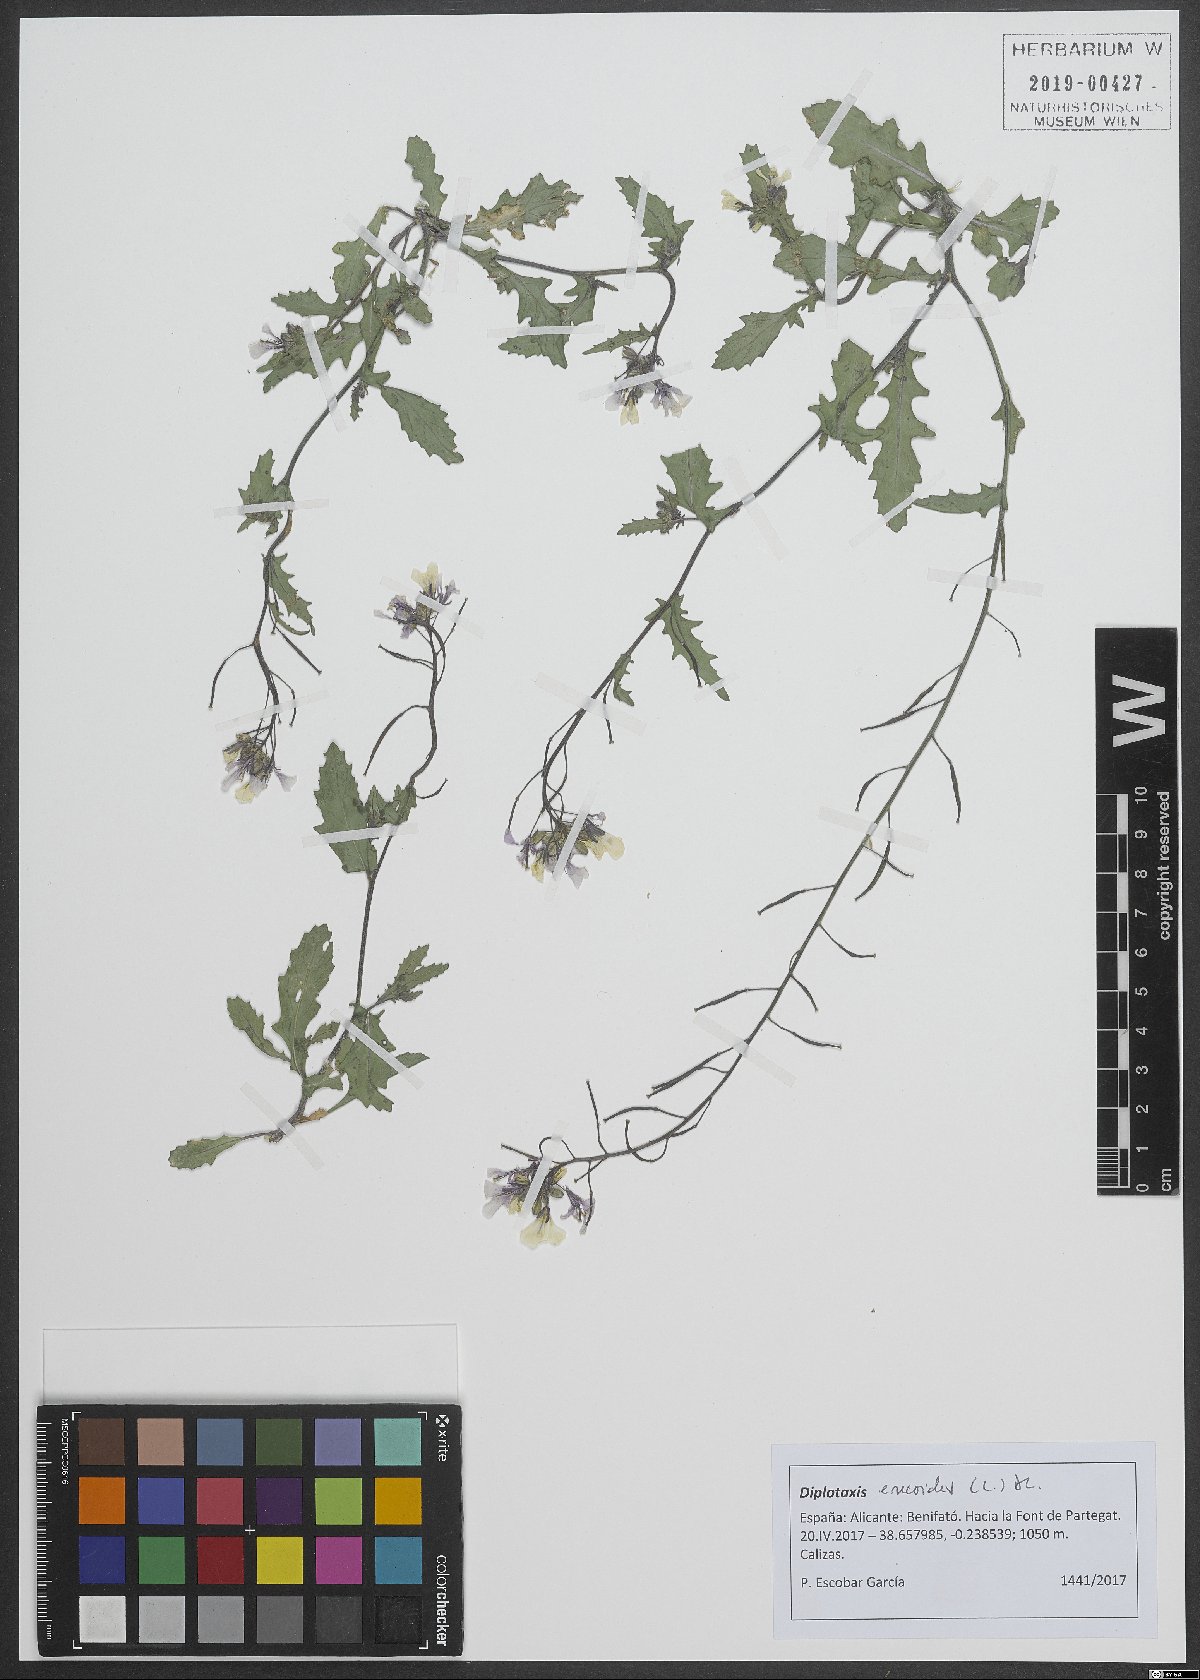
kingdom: Plantae
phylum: Tracheophyta
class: Magnoliopsida
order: Brassicales
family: Brassicaceae
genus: Diplotaxis
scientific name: Diplotaxis erucoides
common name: White rocket
